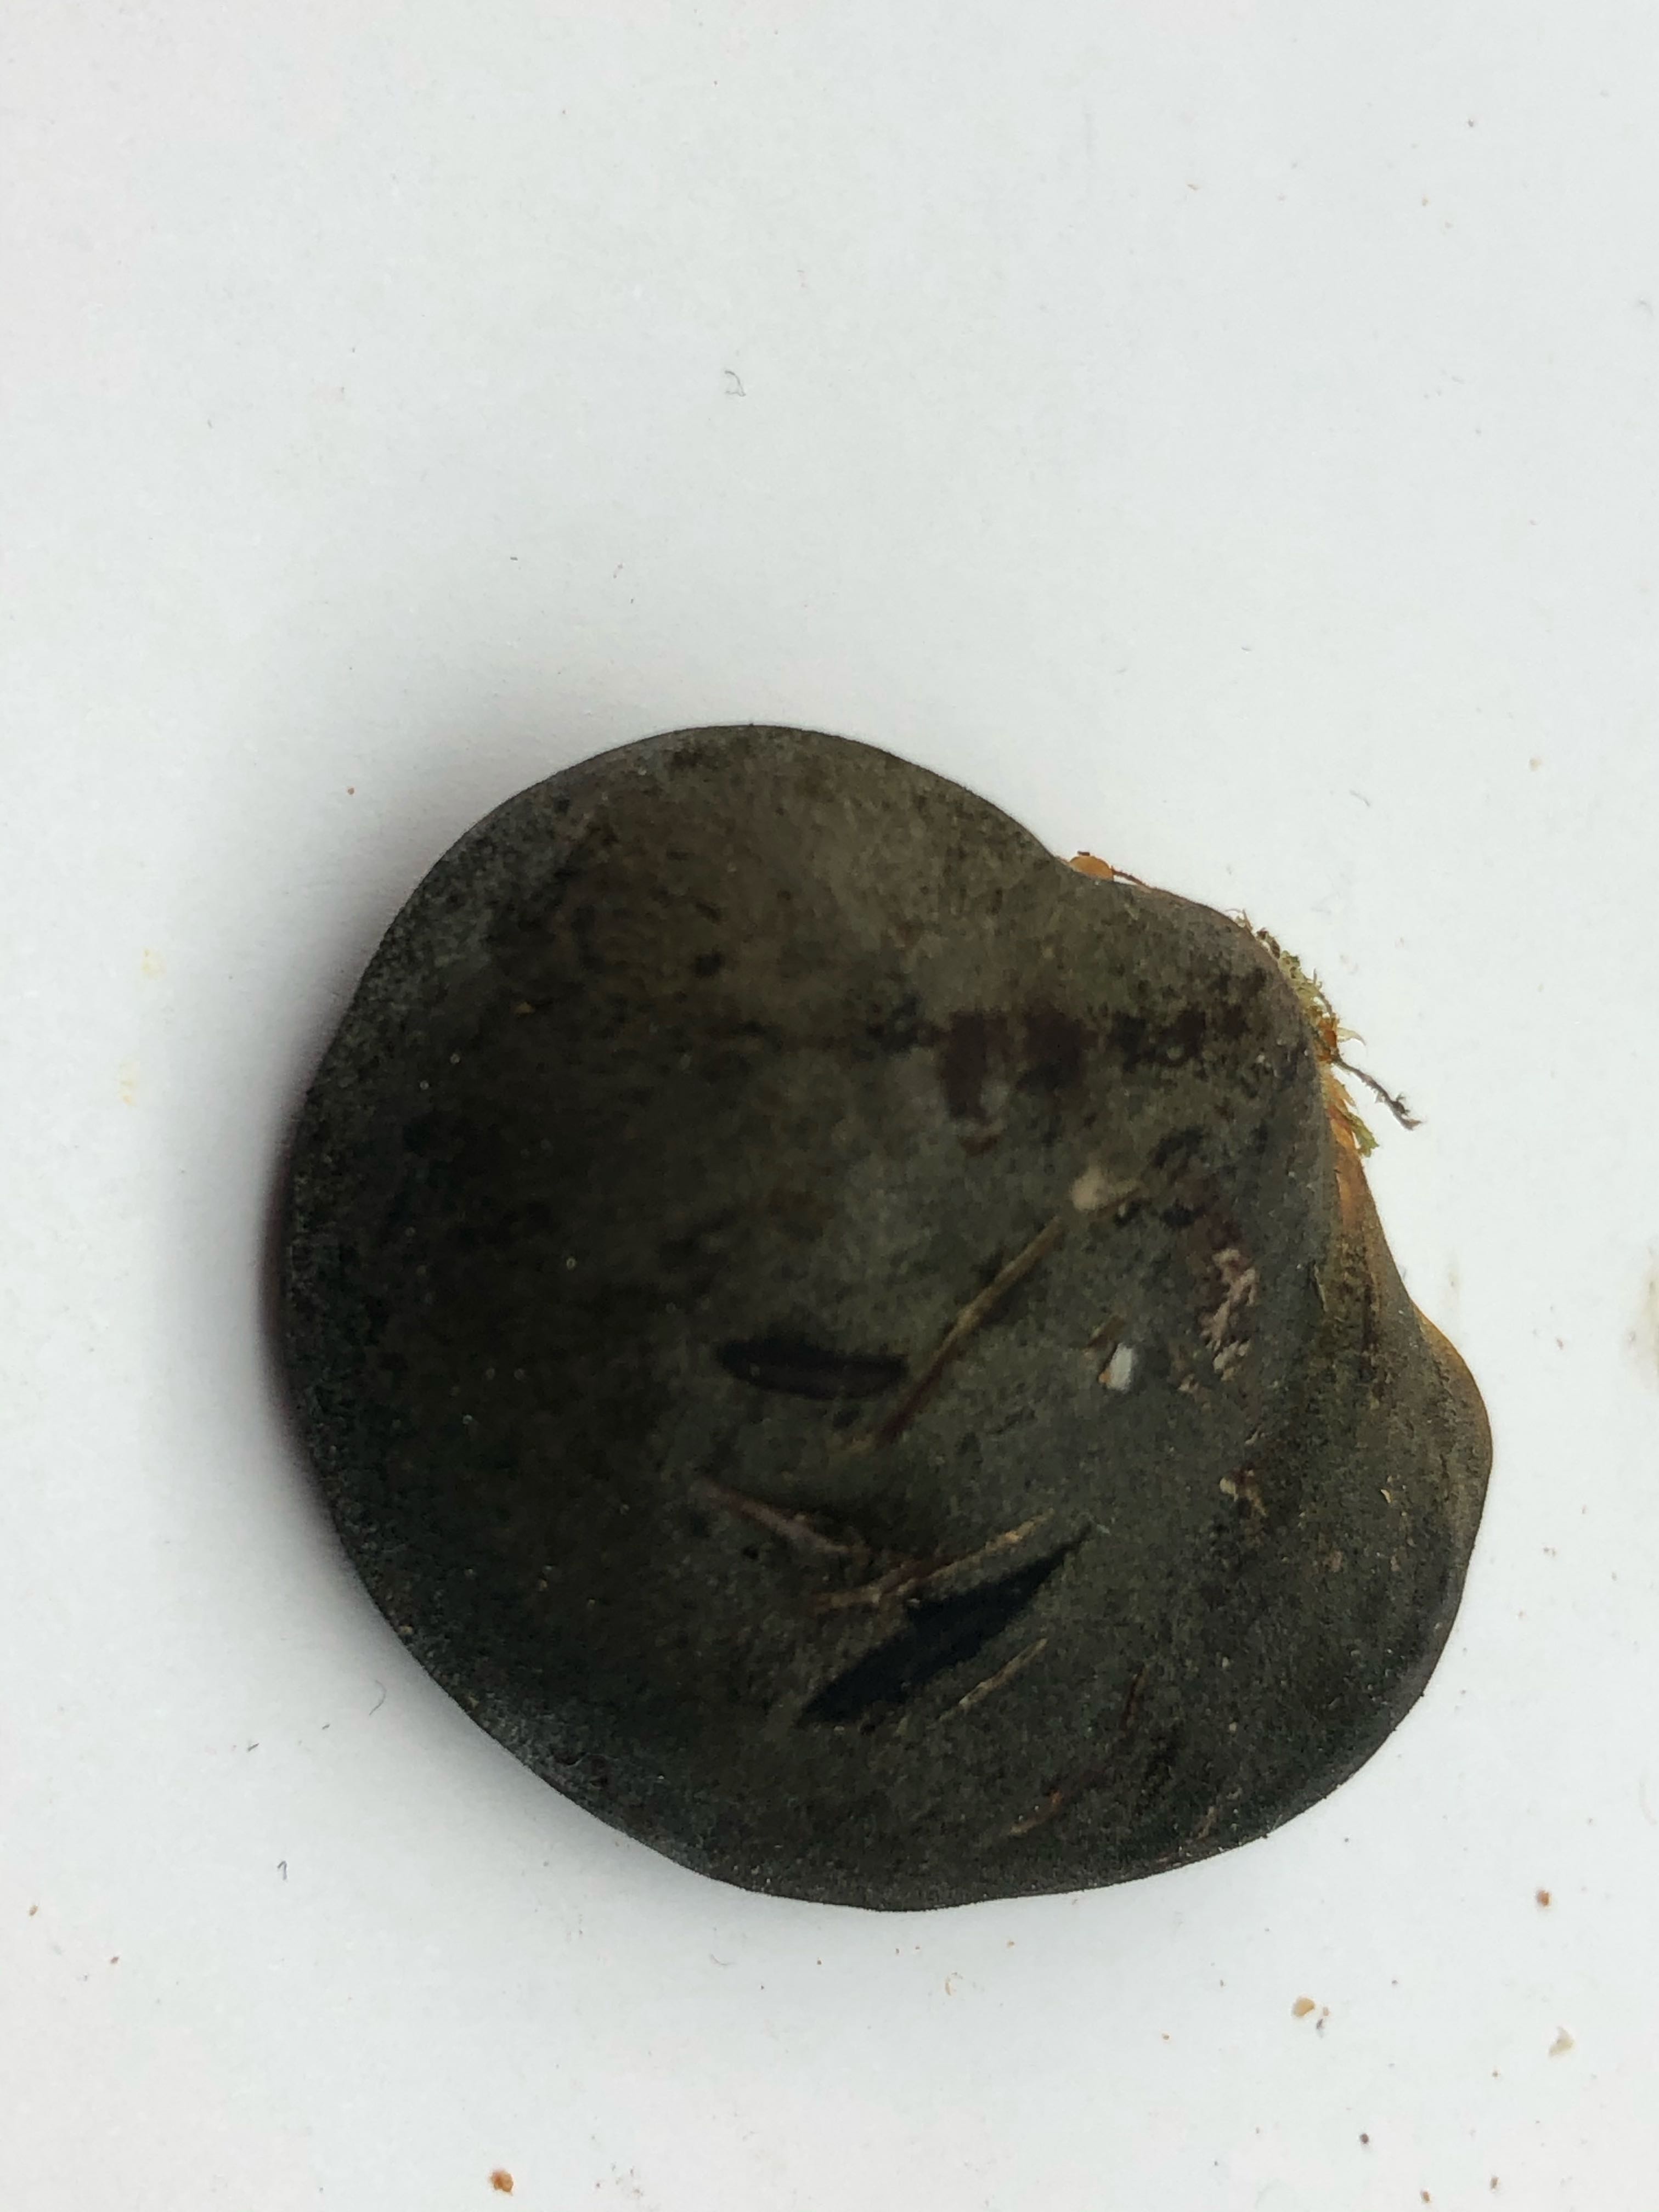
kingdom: Fungi
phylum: Basidiomycota
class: Agaricomycetes
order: Agaricales
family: Sarcomyxaceae
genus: Sarcomyxa
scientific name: Sarcomyxa serotina
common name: gummihat
